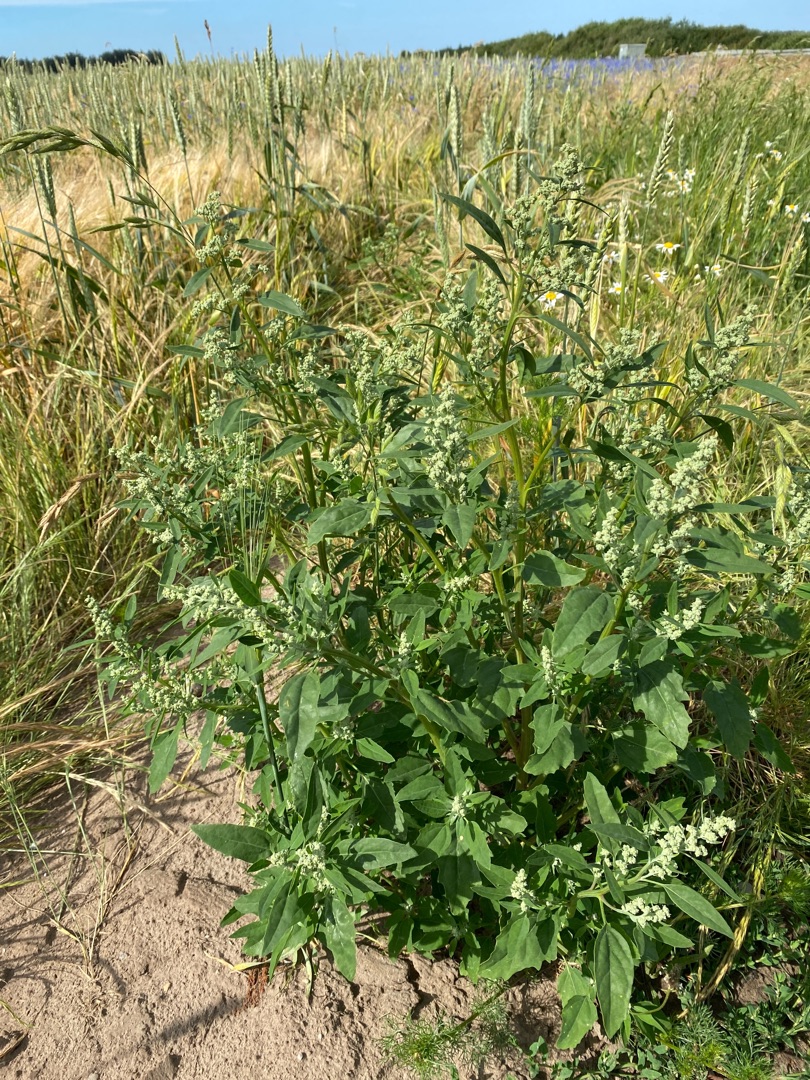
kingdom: Plantae
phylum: Tracheophyta
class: Magnoliopsida
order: Caryophyllales
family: Amaranthaceae
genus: Chenopodium
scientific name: Chenopodium album
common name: Hvidmelet gåsefod
